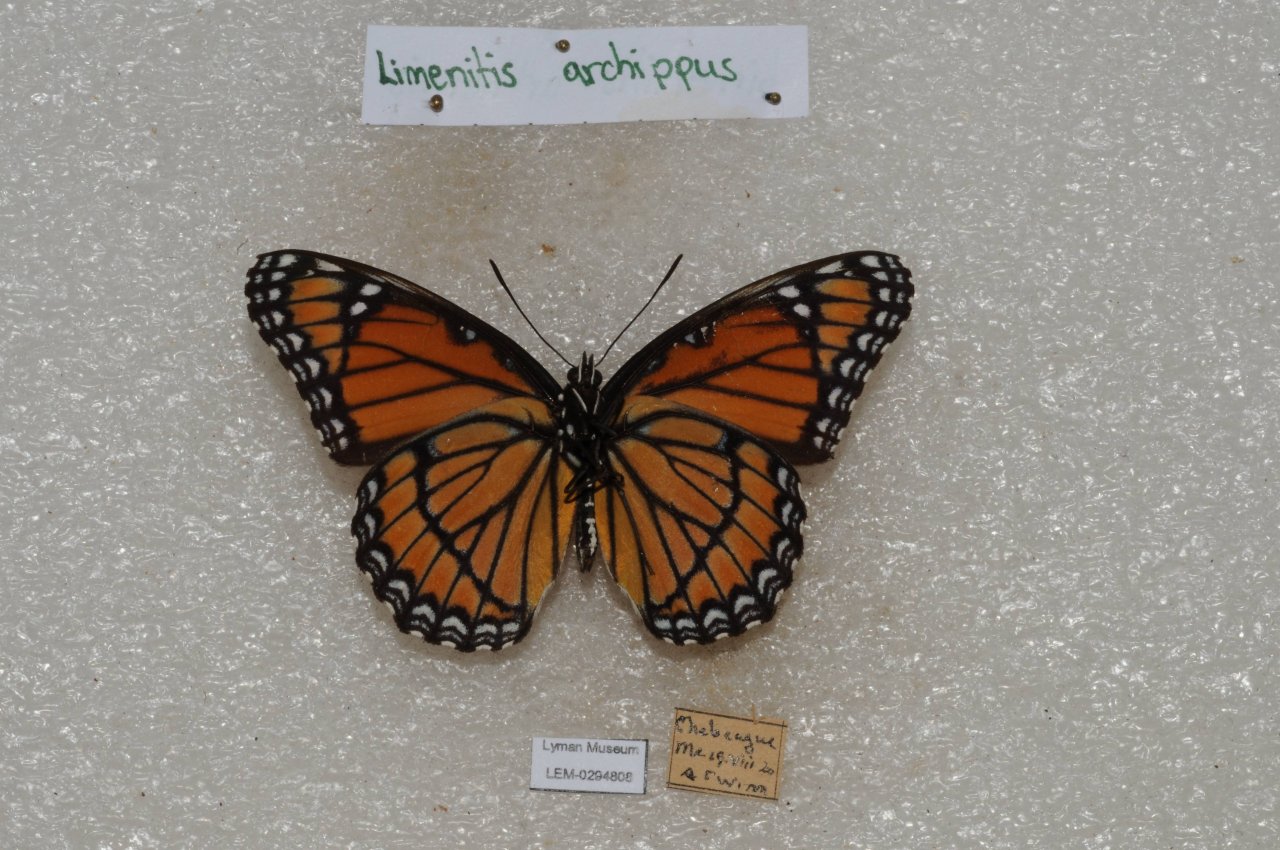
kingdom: Animalia
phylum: Arthropoda
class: Insecta
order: Lepidoptera
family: Nymphalidae
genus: Limenitis
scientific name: Limenitis archippus
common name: Viceroy
